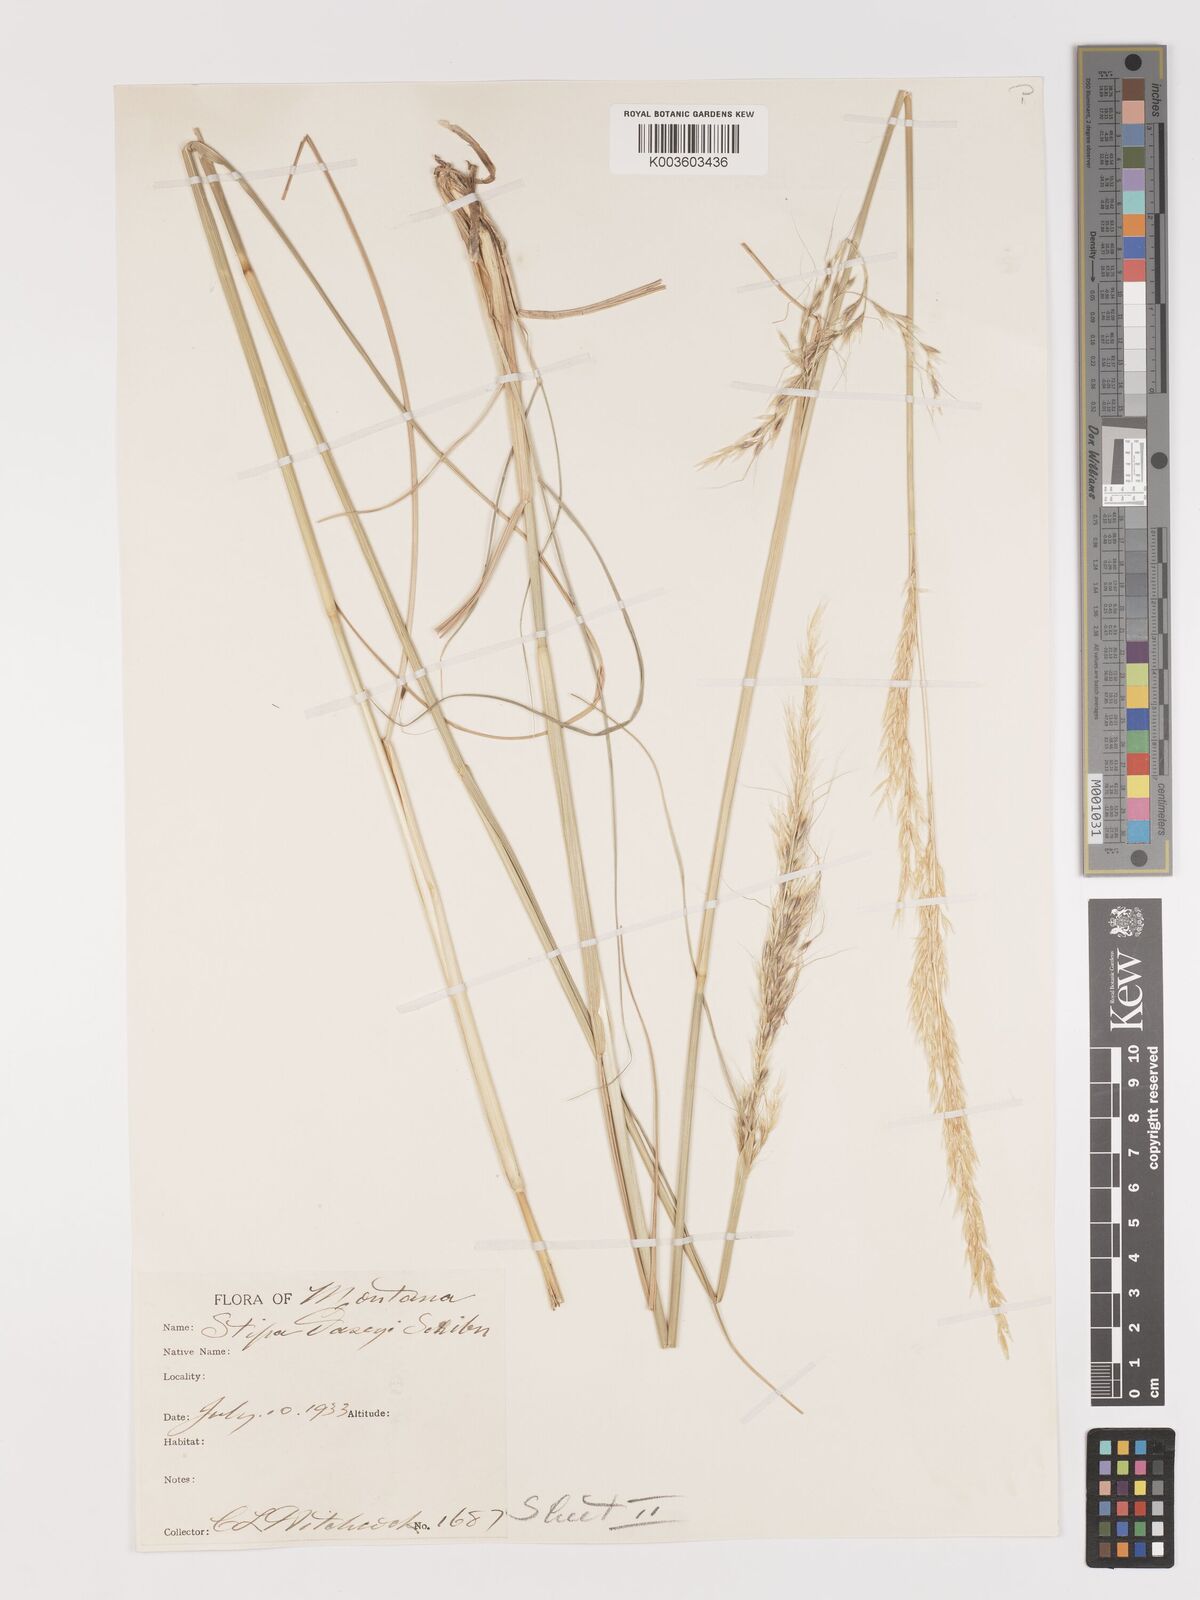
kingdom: Plantae
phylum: Tracheophyta
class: Liliopsida
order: Poales
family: Poaceae
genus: Eriocoma
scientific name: Eriocoma robusta
